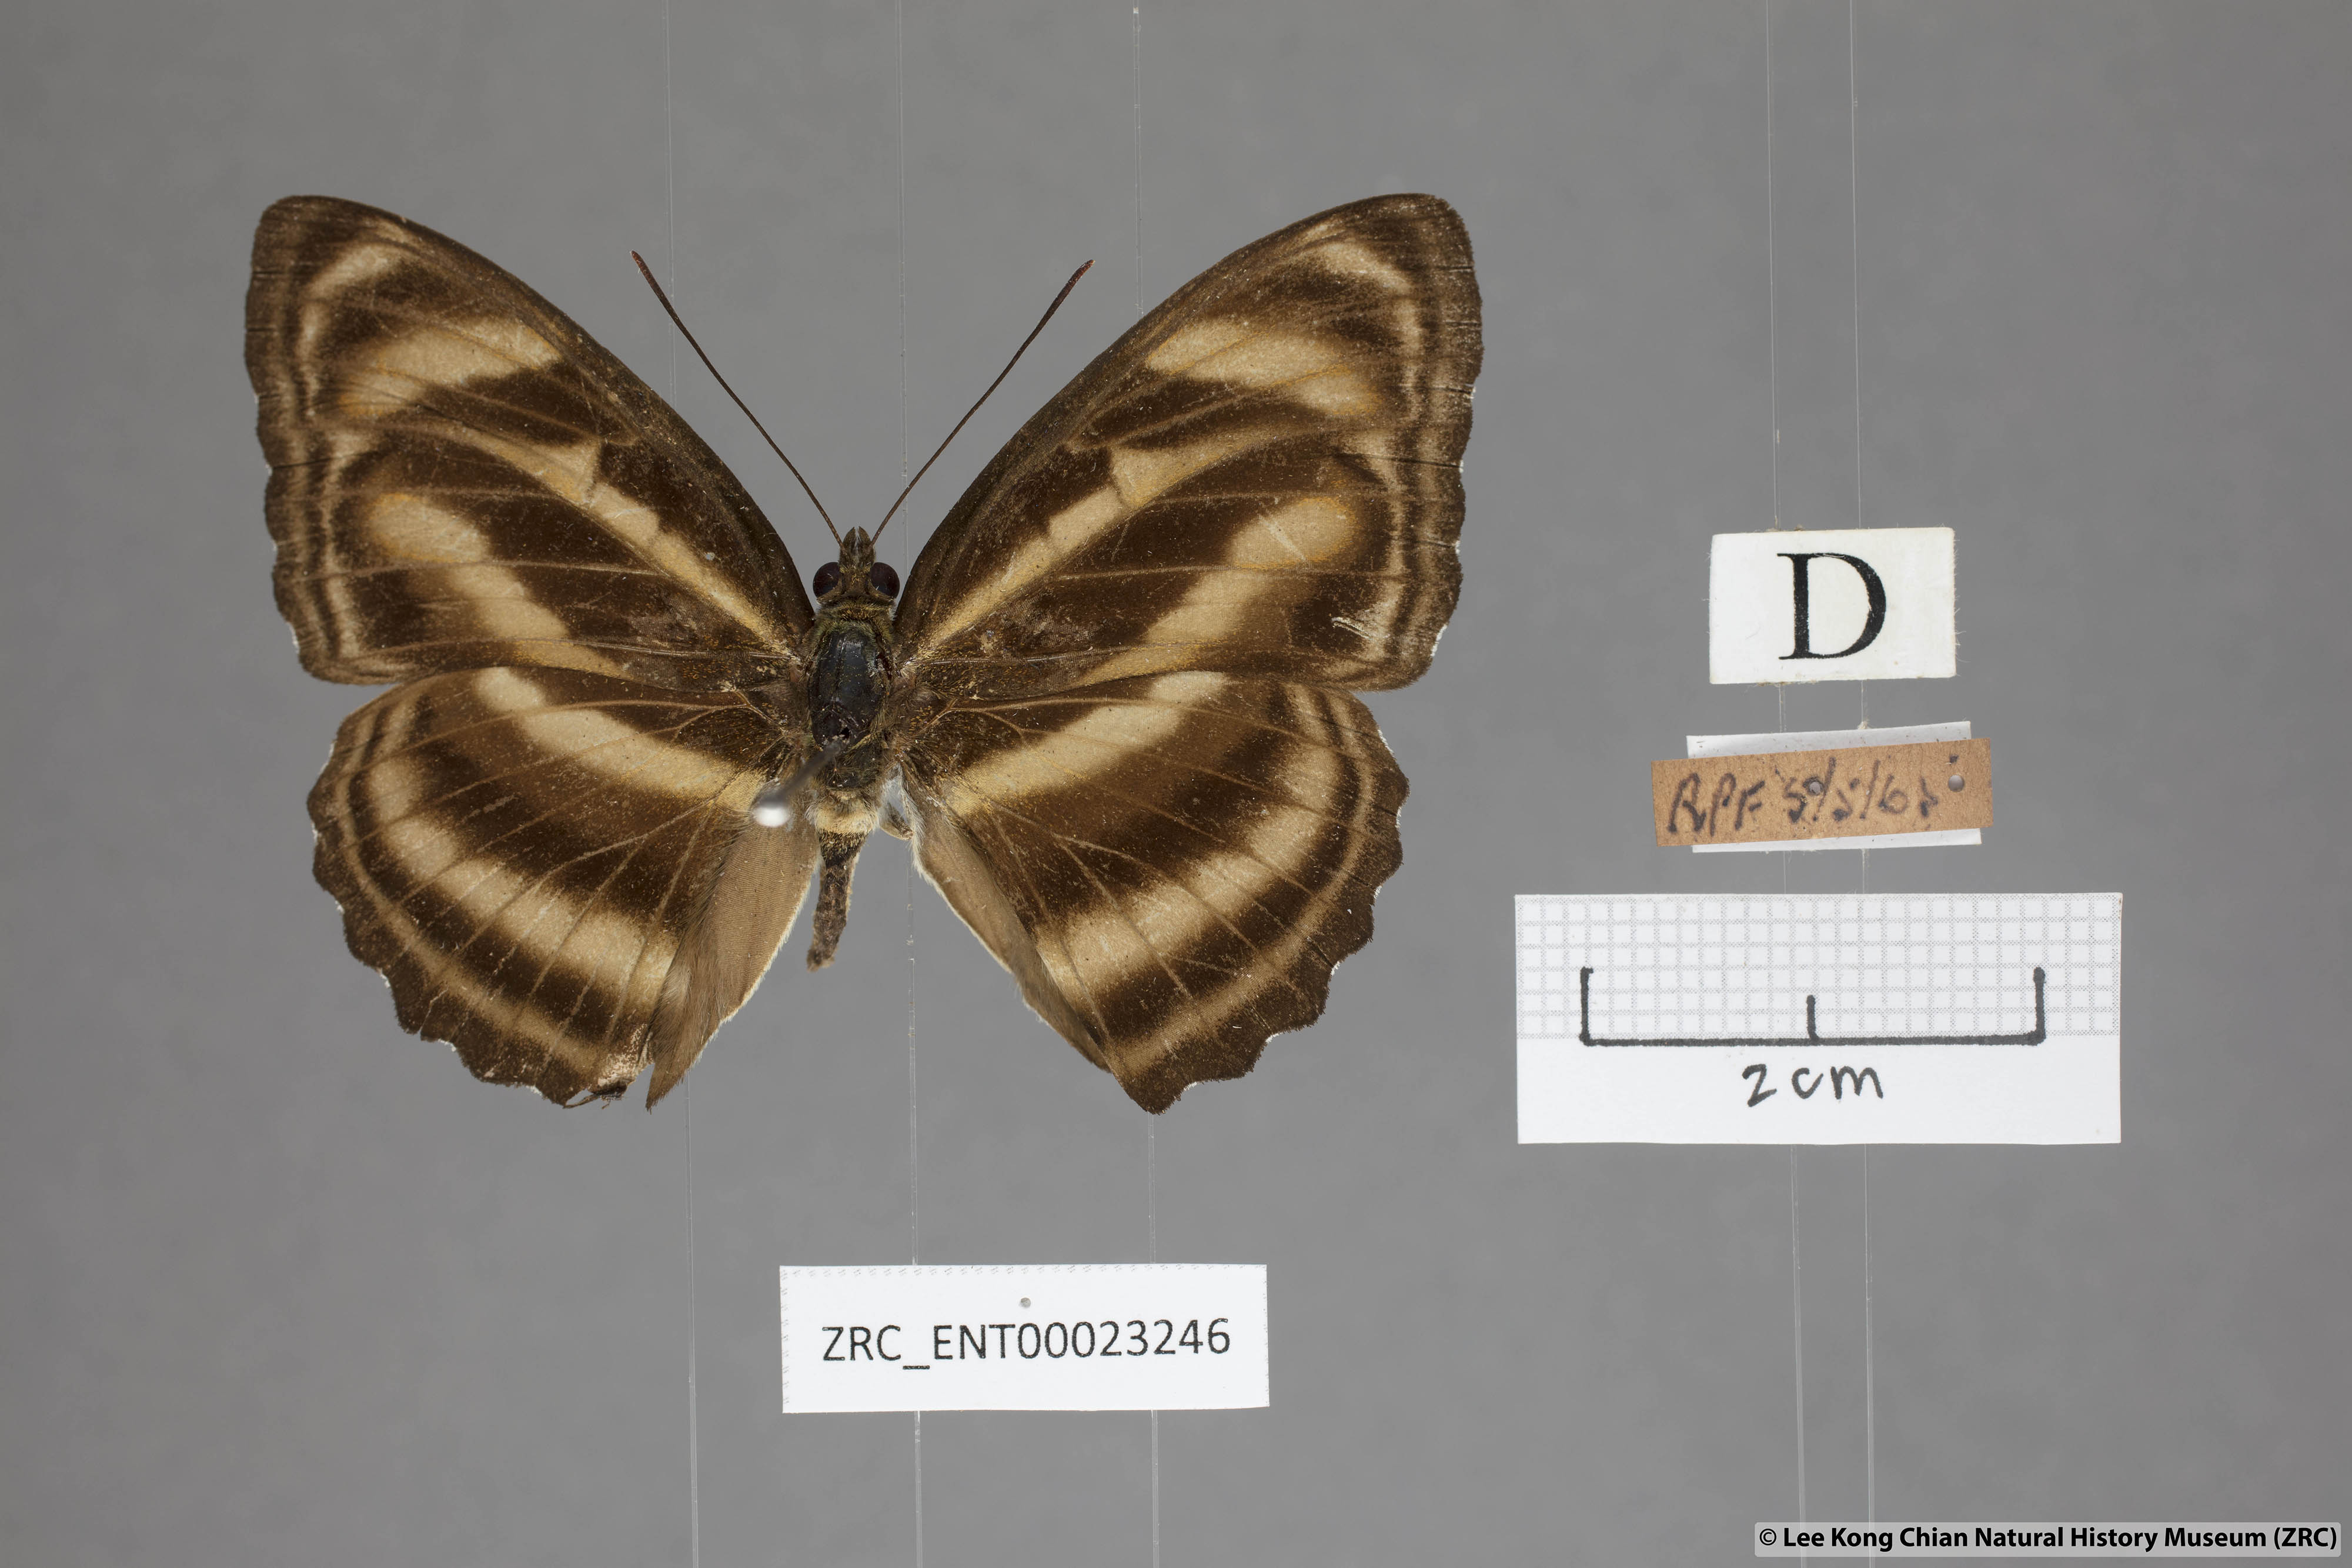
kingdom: Animalia
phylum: Arthropoda
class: Insecta
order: Lepidoptera
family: Nymphalidae
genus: Parathyma
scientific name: Parathyma nefte
